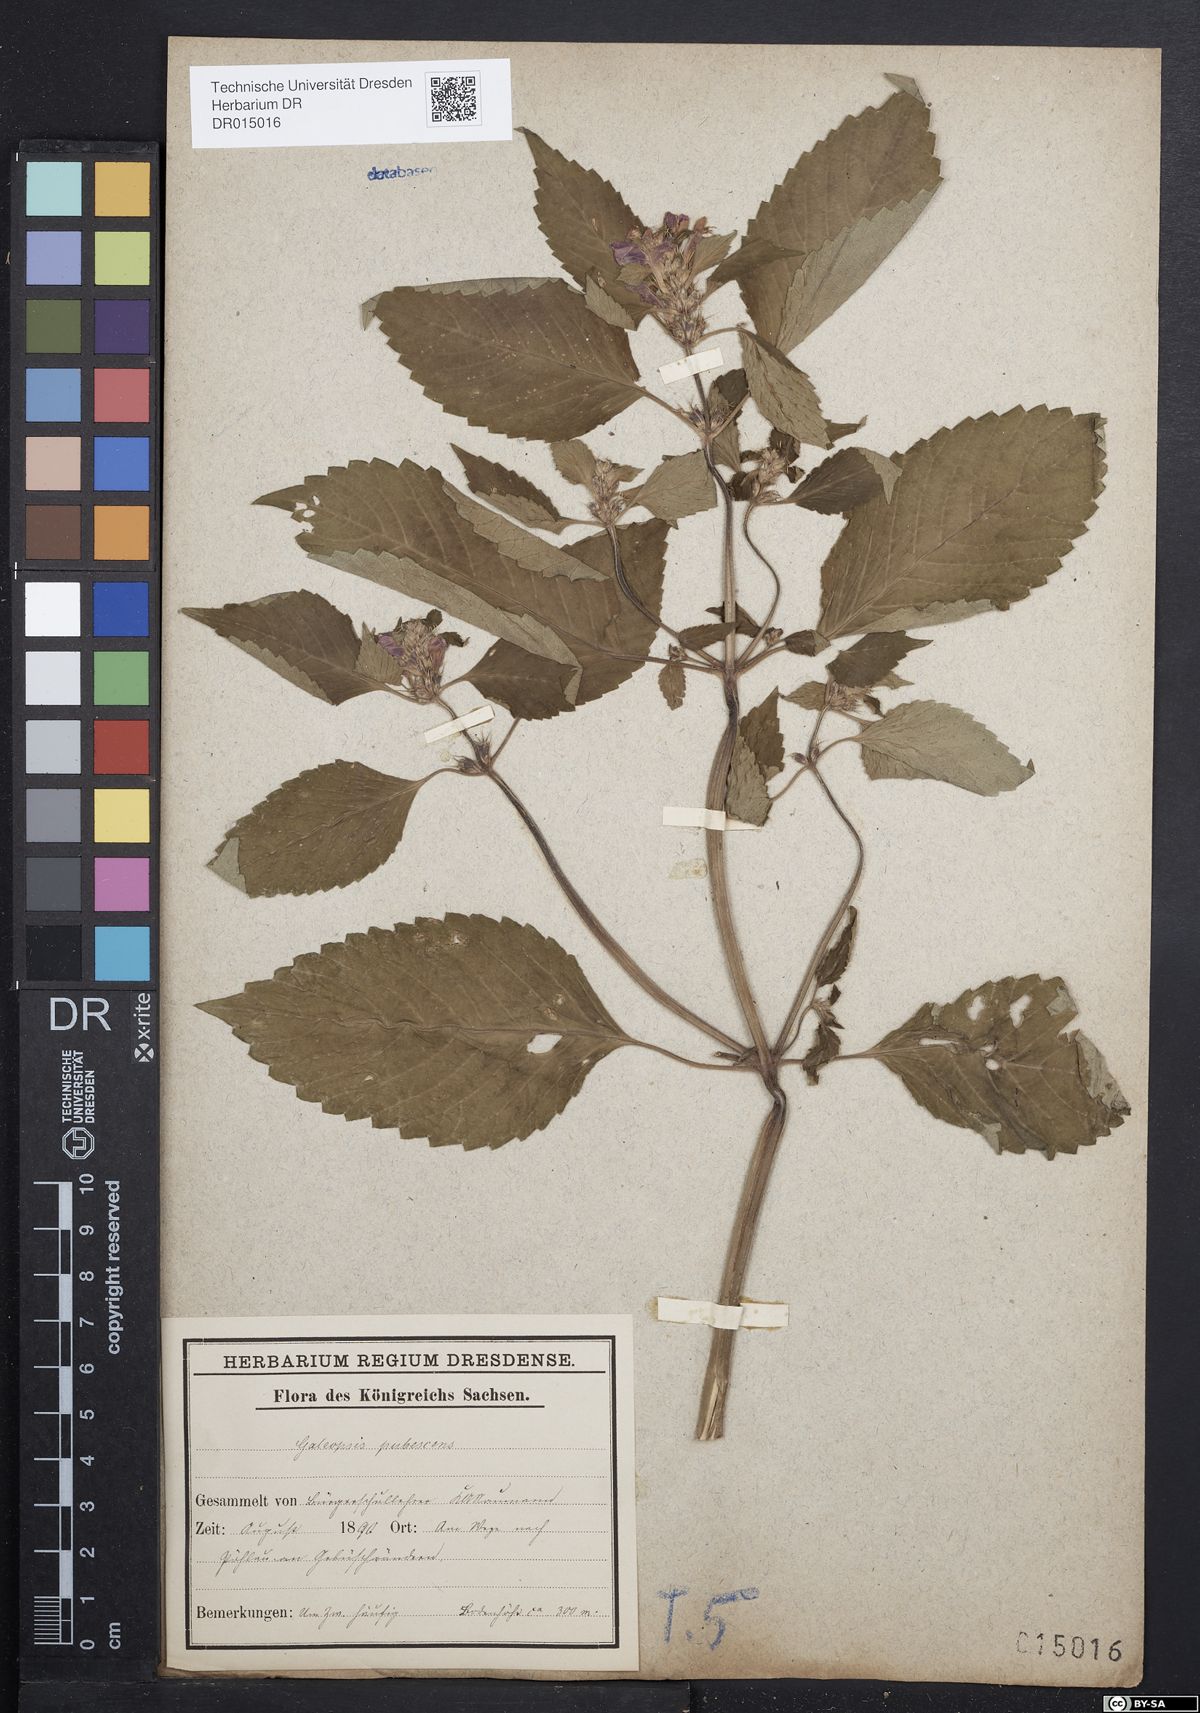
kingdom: Plantae
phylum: Tracheophyta
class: Magnoliopsida
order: Lamiales
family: Lamiaceae
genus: Galeopsis
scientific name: Galeopsis pubescens
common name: Downy hemp-nettle
